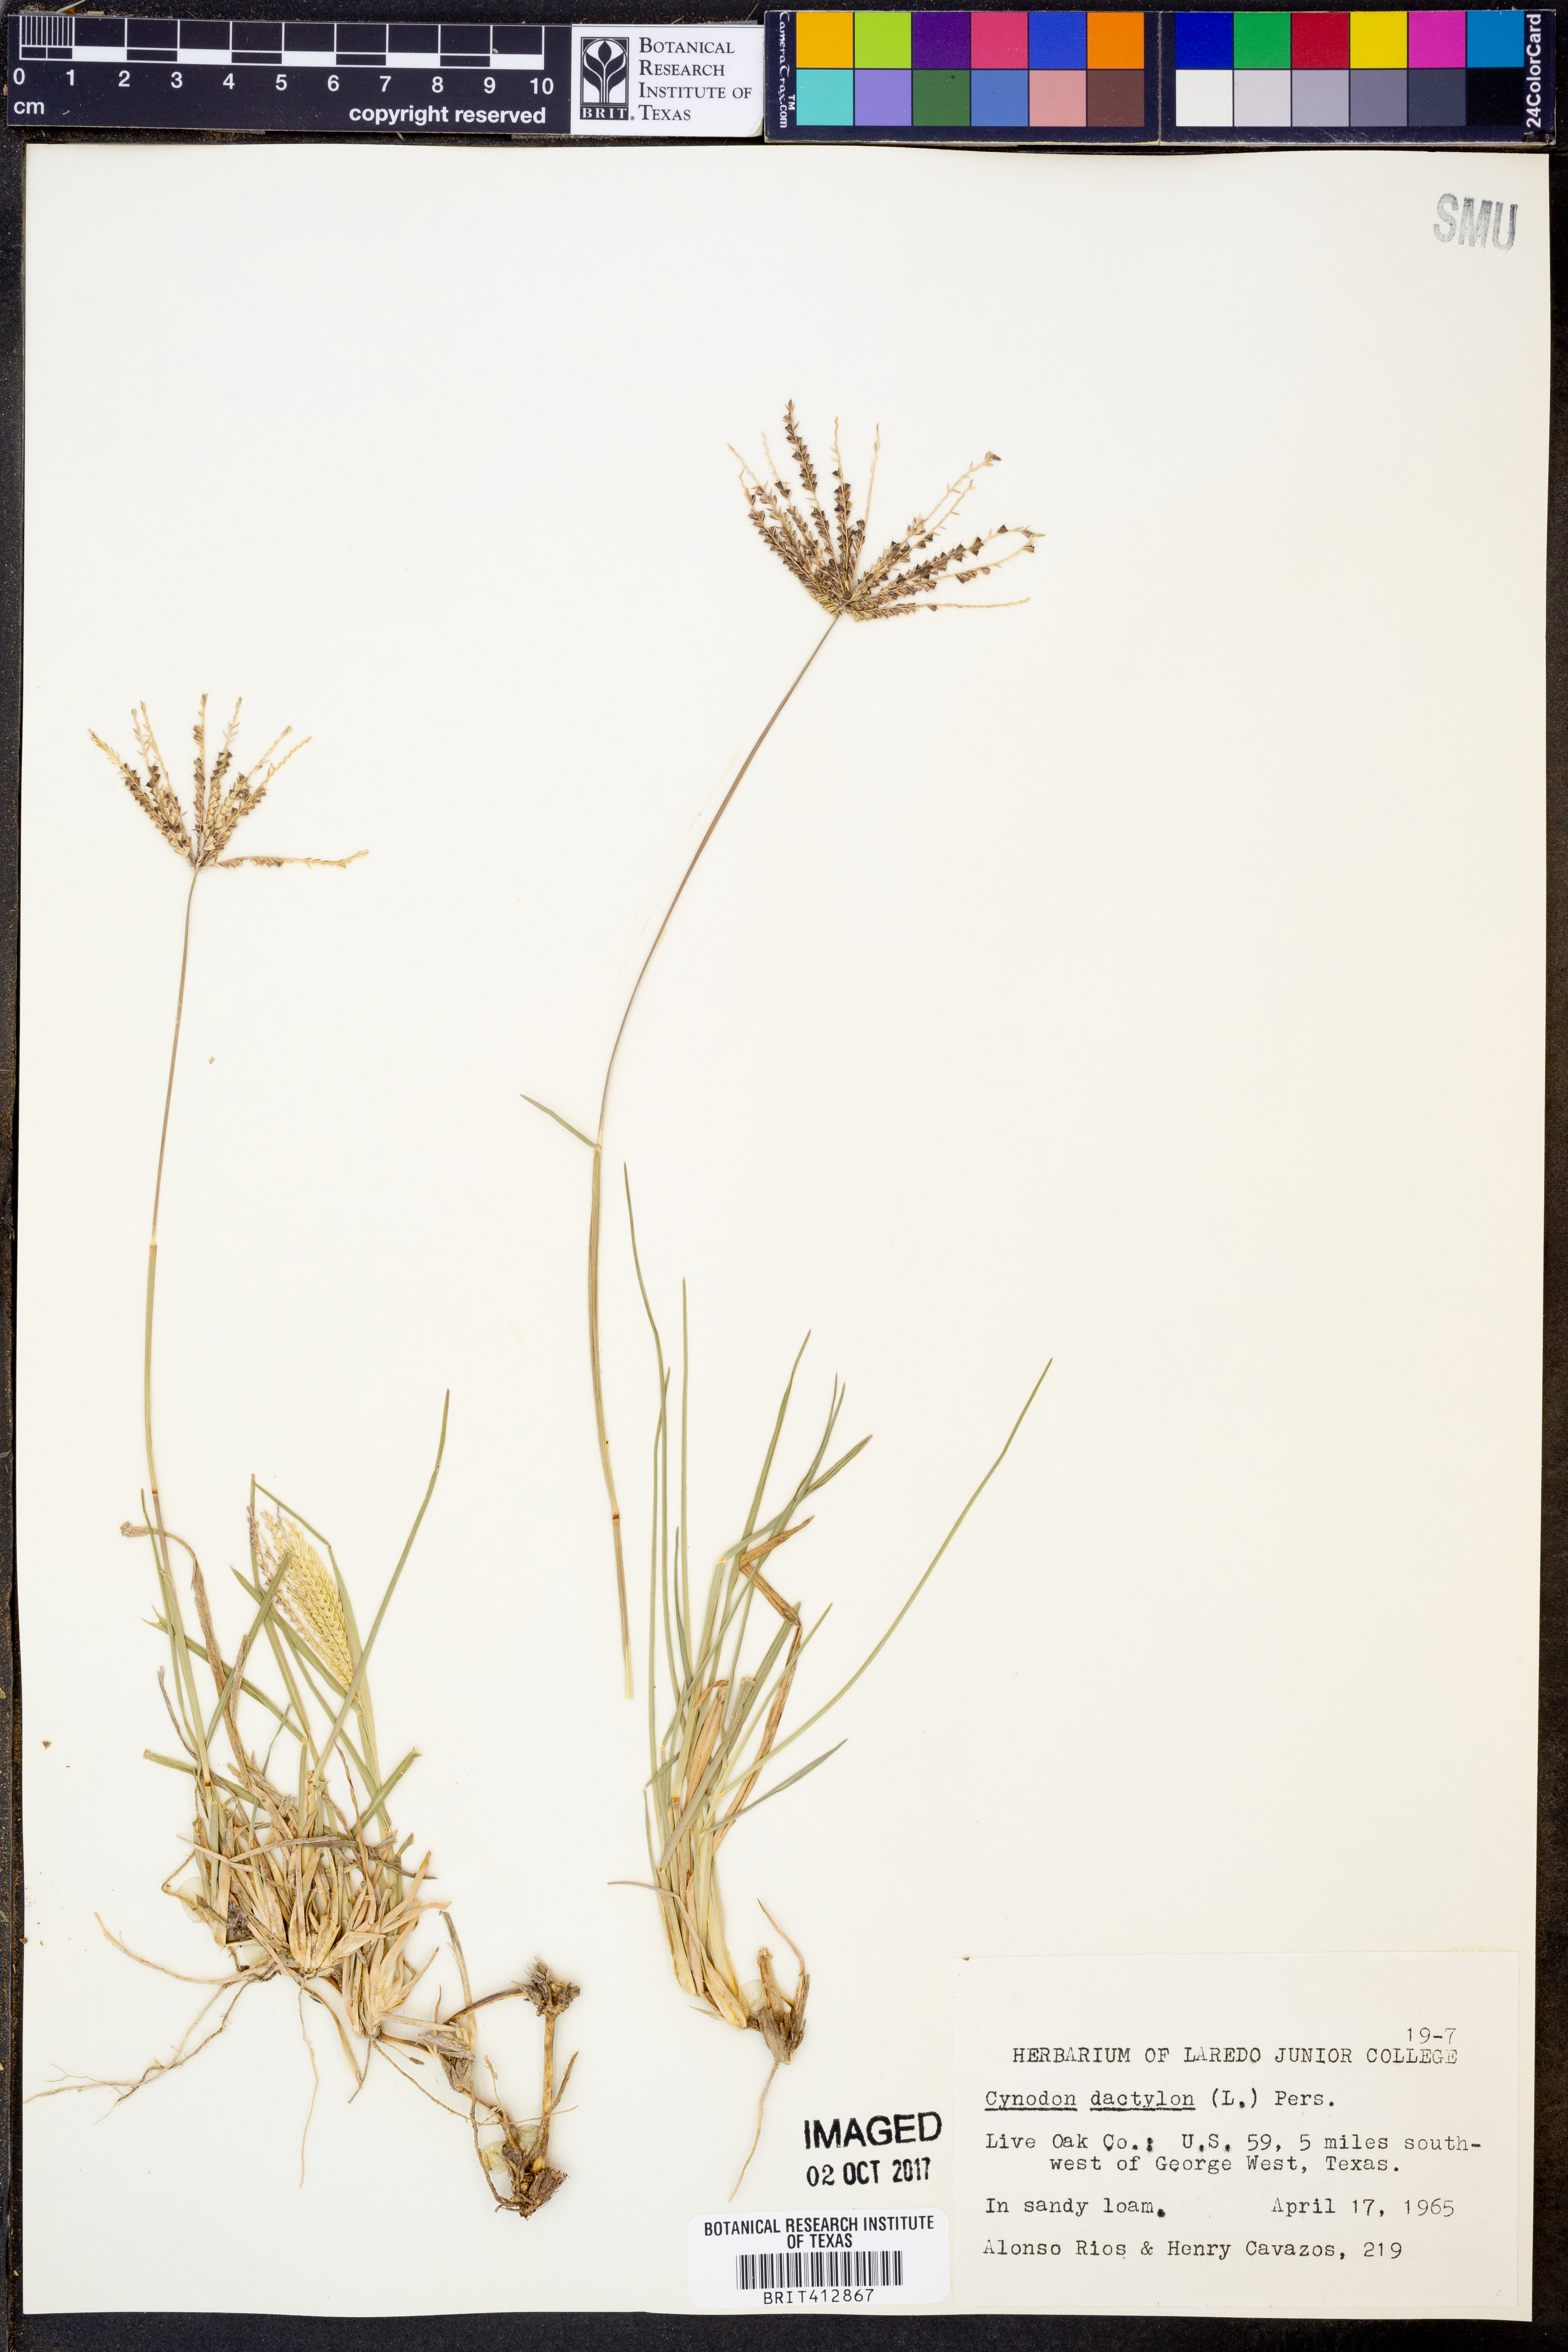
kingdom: Plantae
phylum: Tracheophyta
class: Liliopsida
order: Poales
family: Poaceae
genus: Cynodon
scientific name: Cynodon dactylon
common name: Bermuda grass
